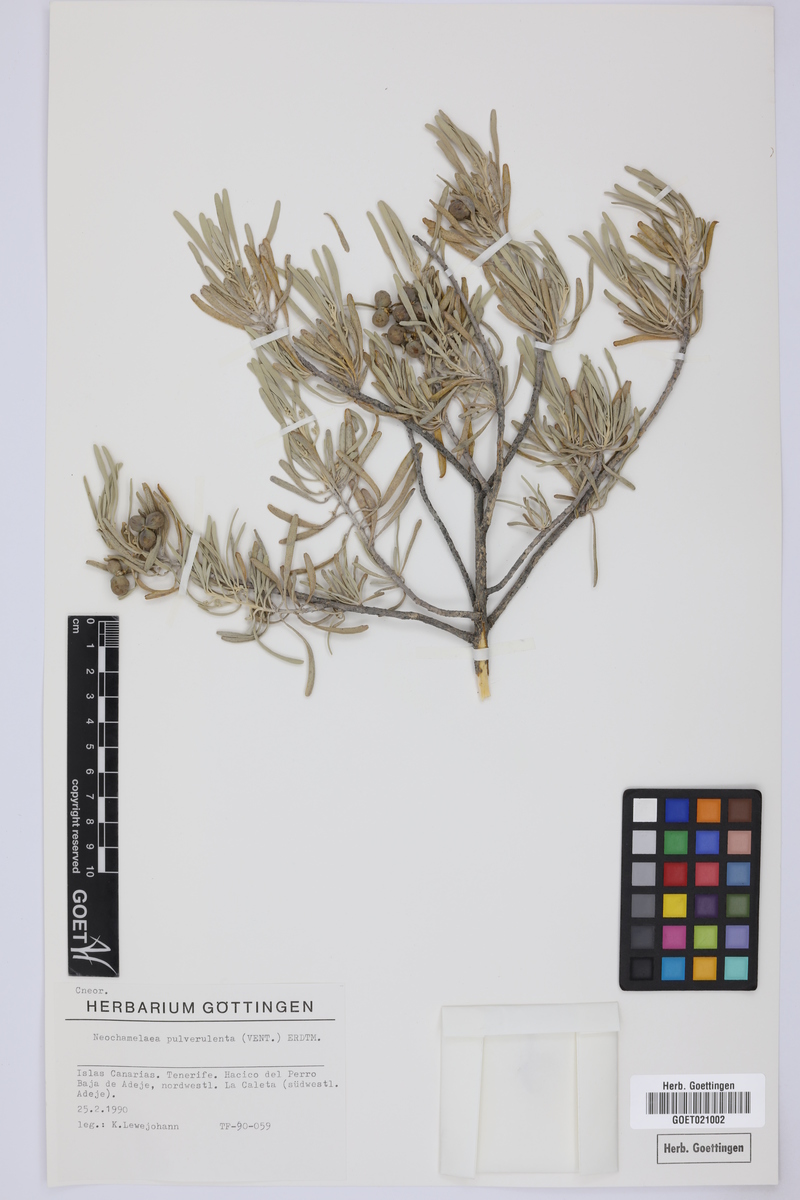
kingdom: Plantae
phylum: Tracheophyta
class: Magnoliopsida
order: Sapindales
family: Rutaceae
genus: Cneorum
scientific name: Cneorum pulverulentum
